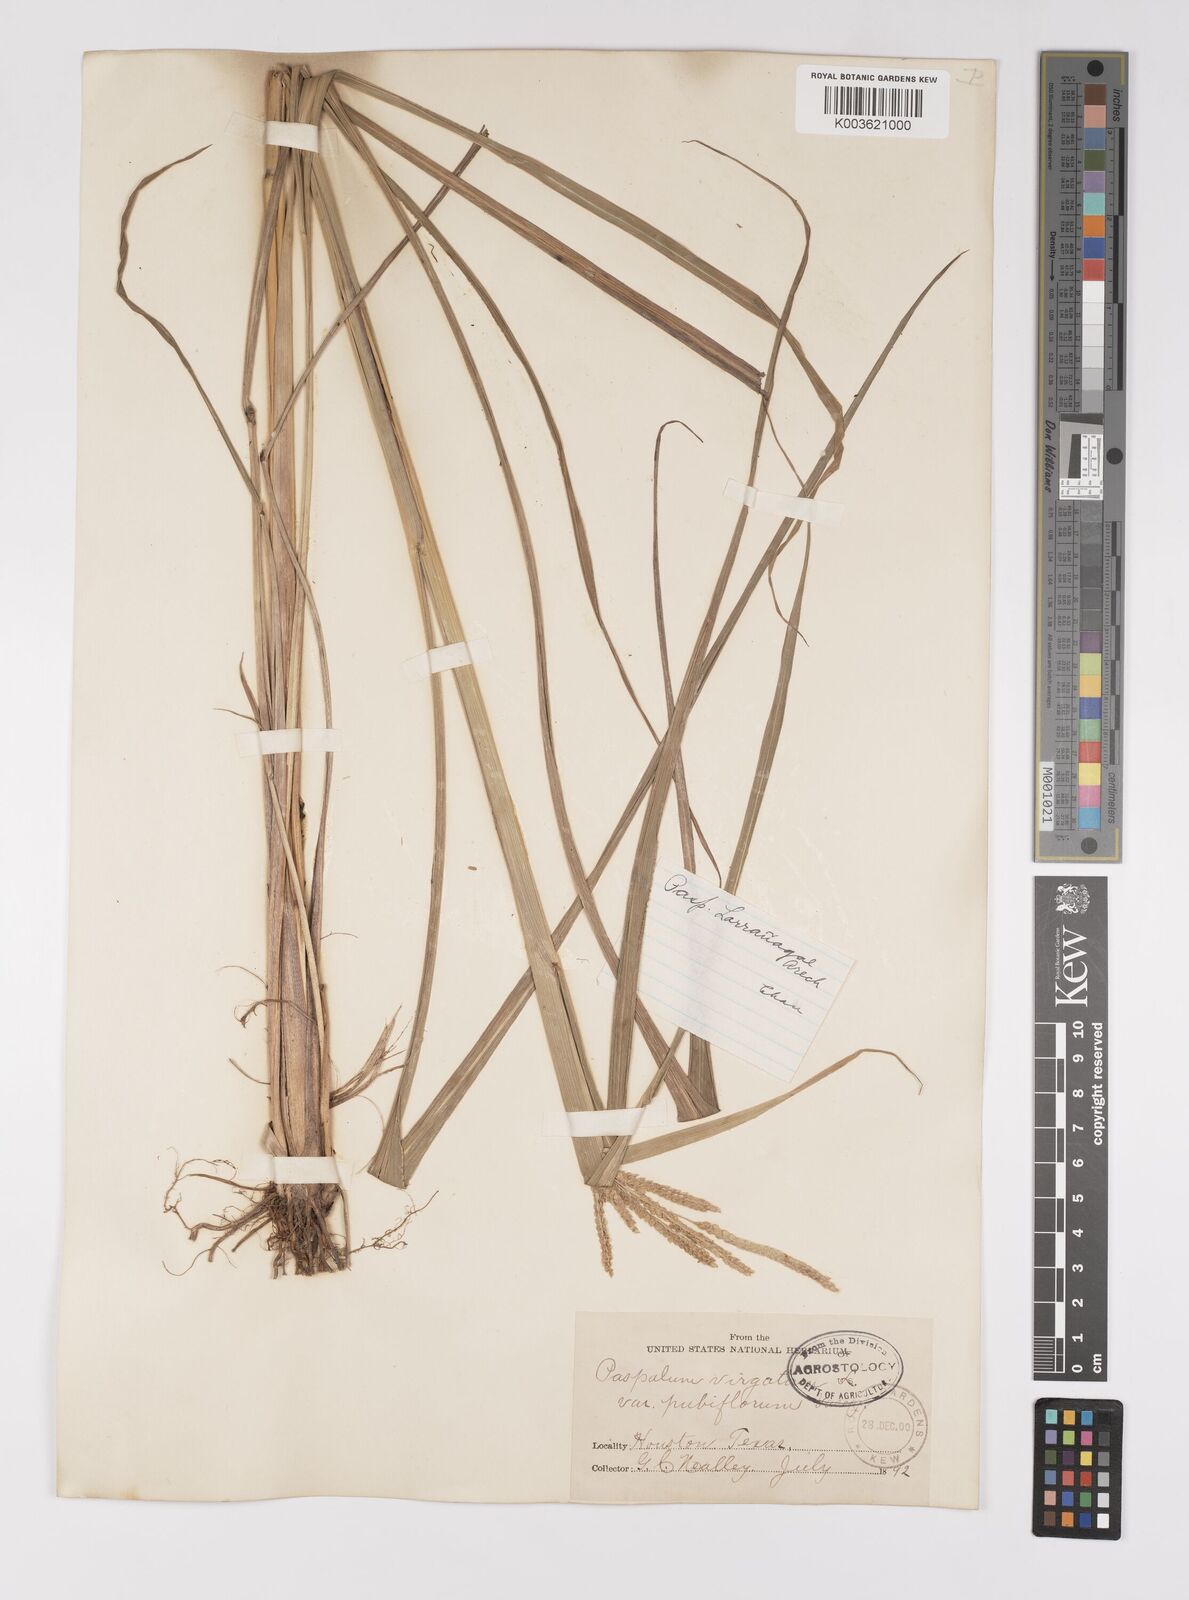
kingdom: Plantae
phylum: Tracheophyta
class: Liliopsida
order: Poales
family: Poaceae
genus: Paspalum
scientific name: Paspalum urvillei
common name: Vasey's grass
